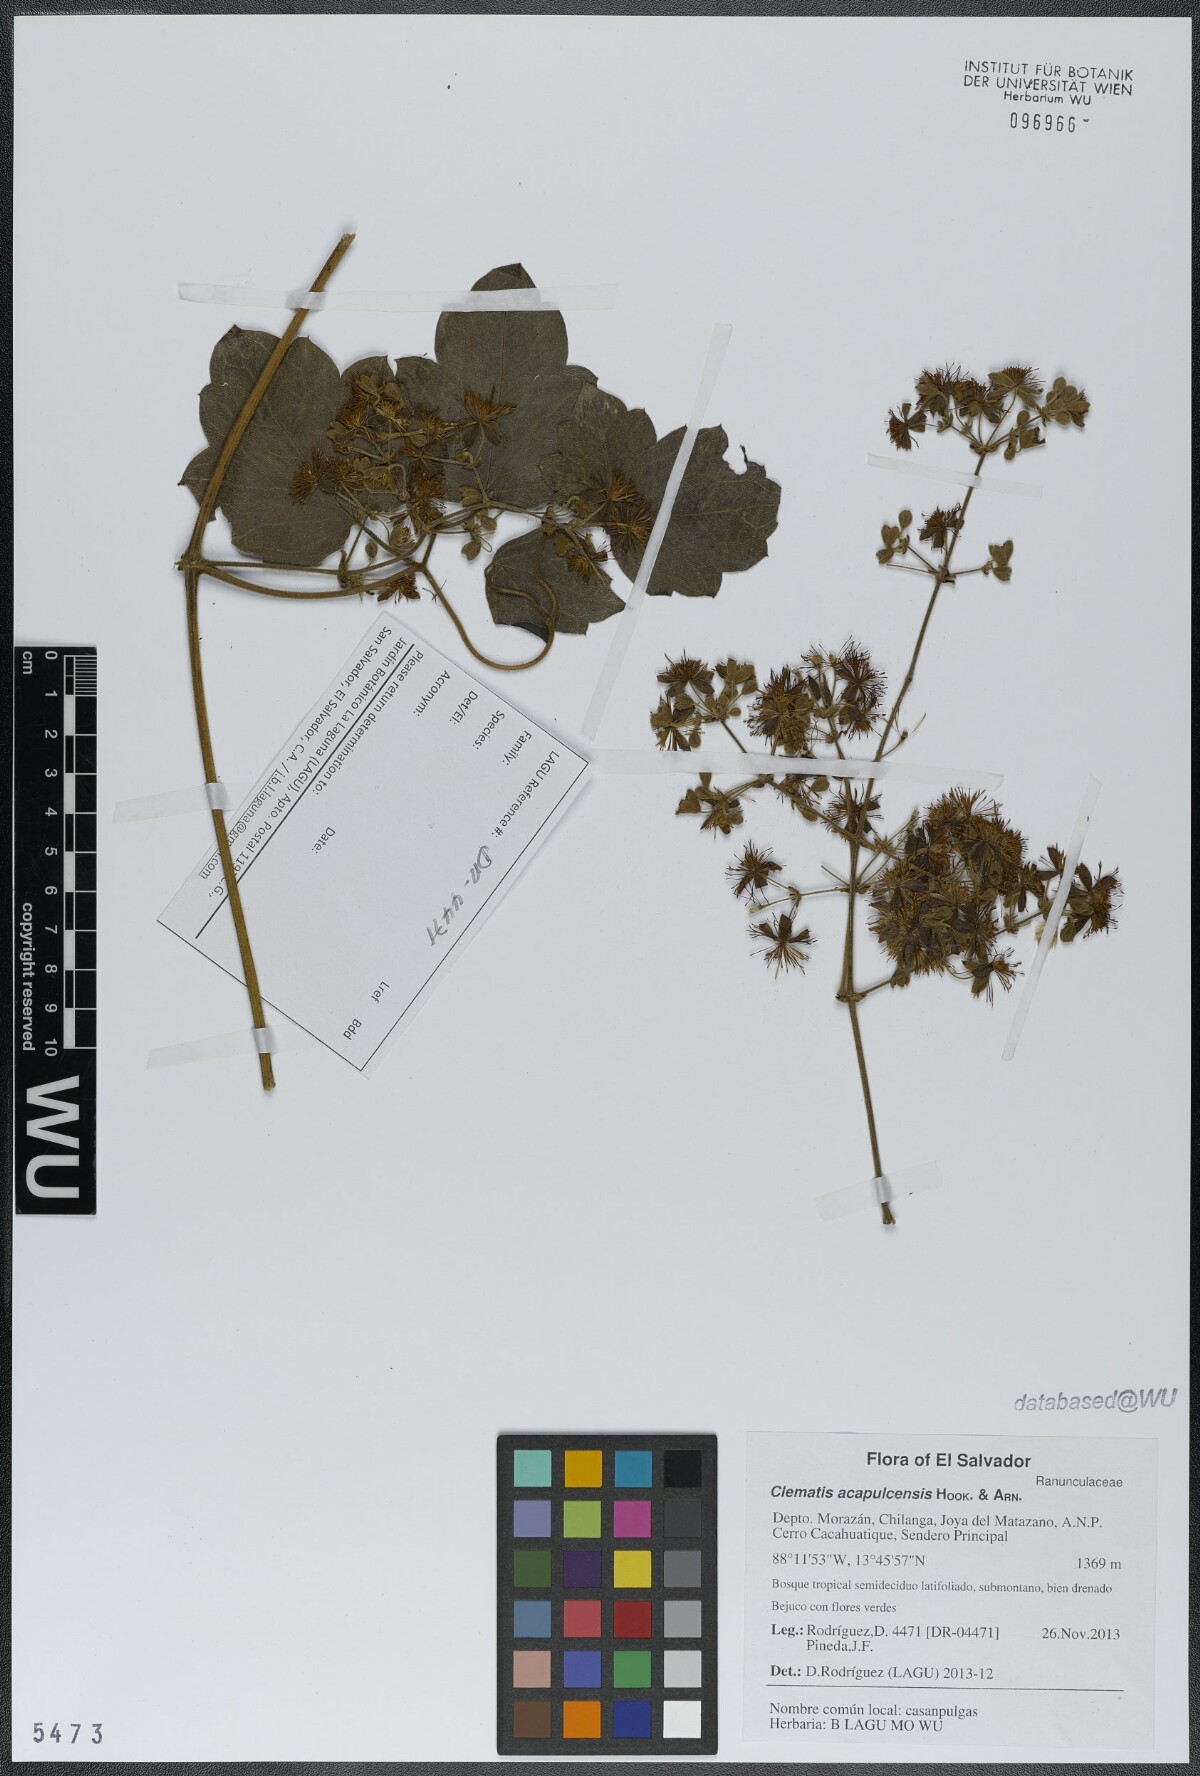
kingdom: Plantae
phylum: Tracheophyta
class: Magnoliopsida
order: Ranunculales
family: Ranunculaceae
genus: Clematis
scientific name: Clematis acapulcensis
